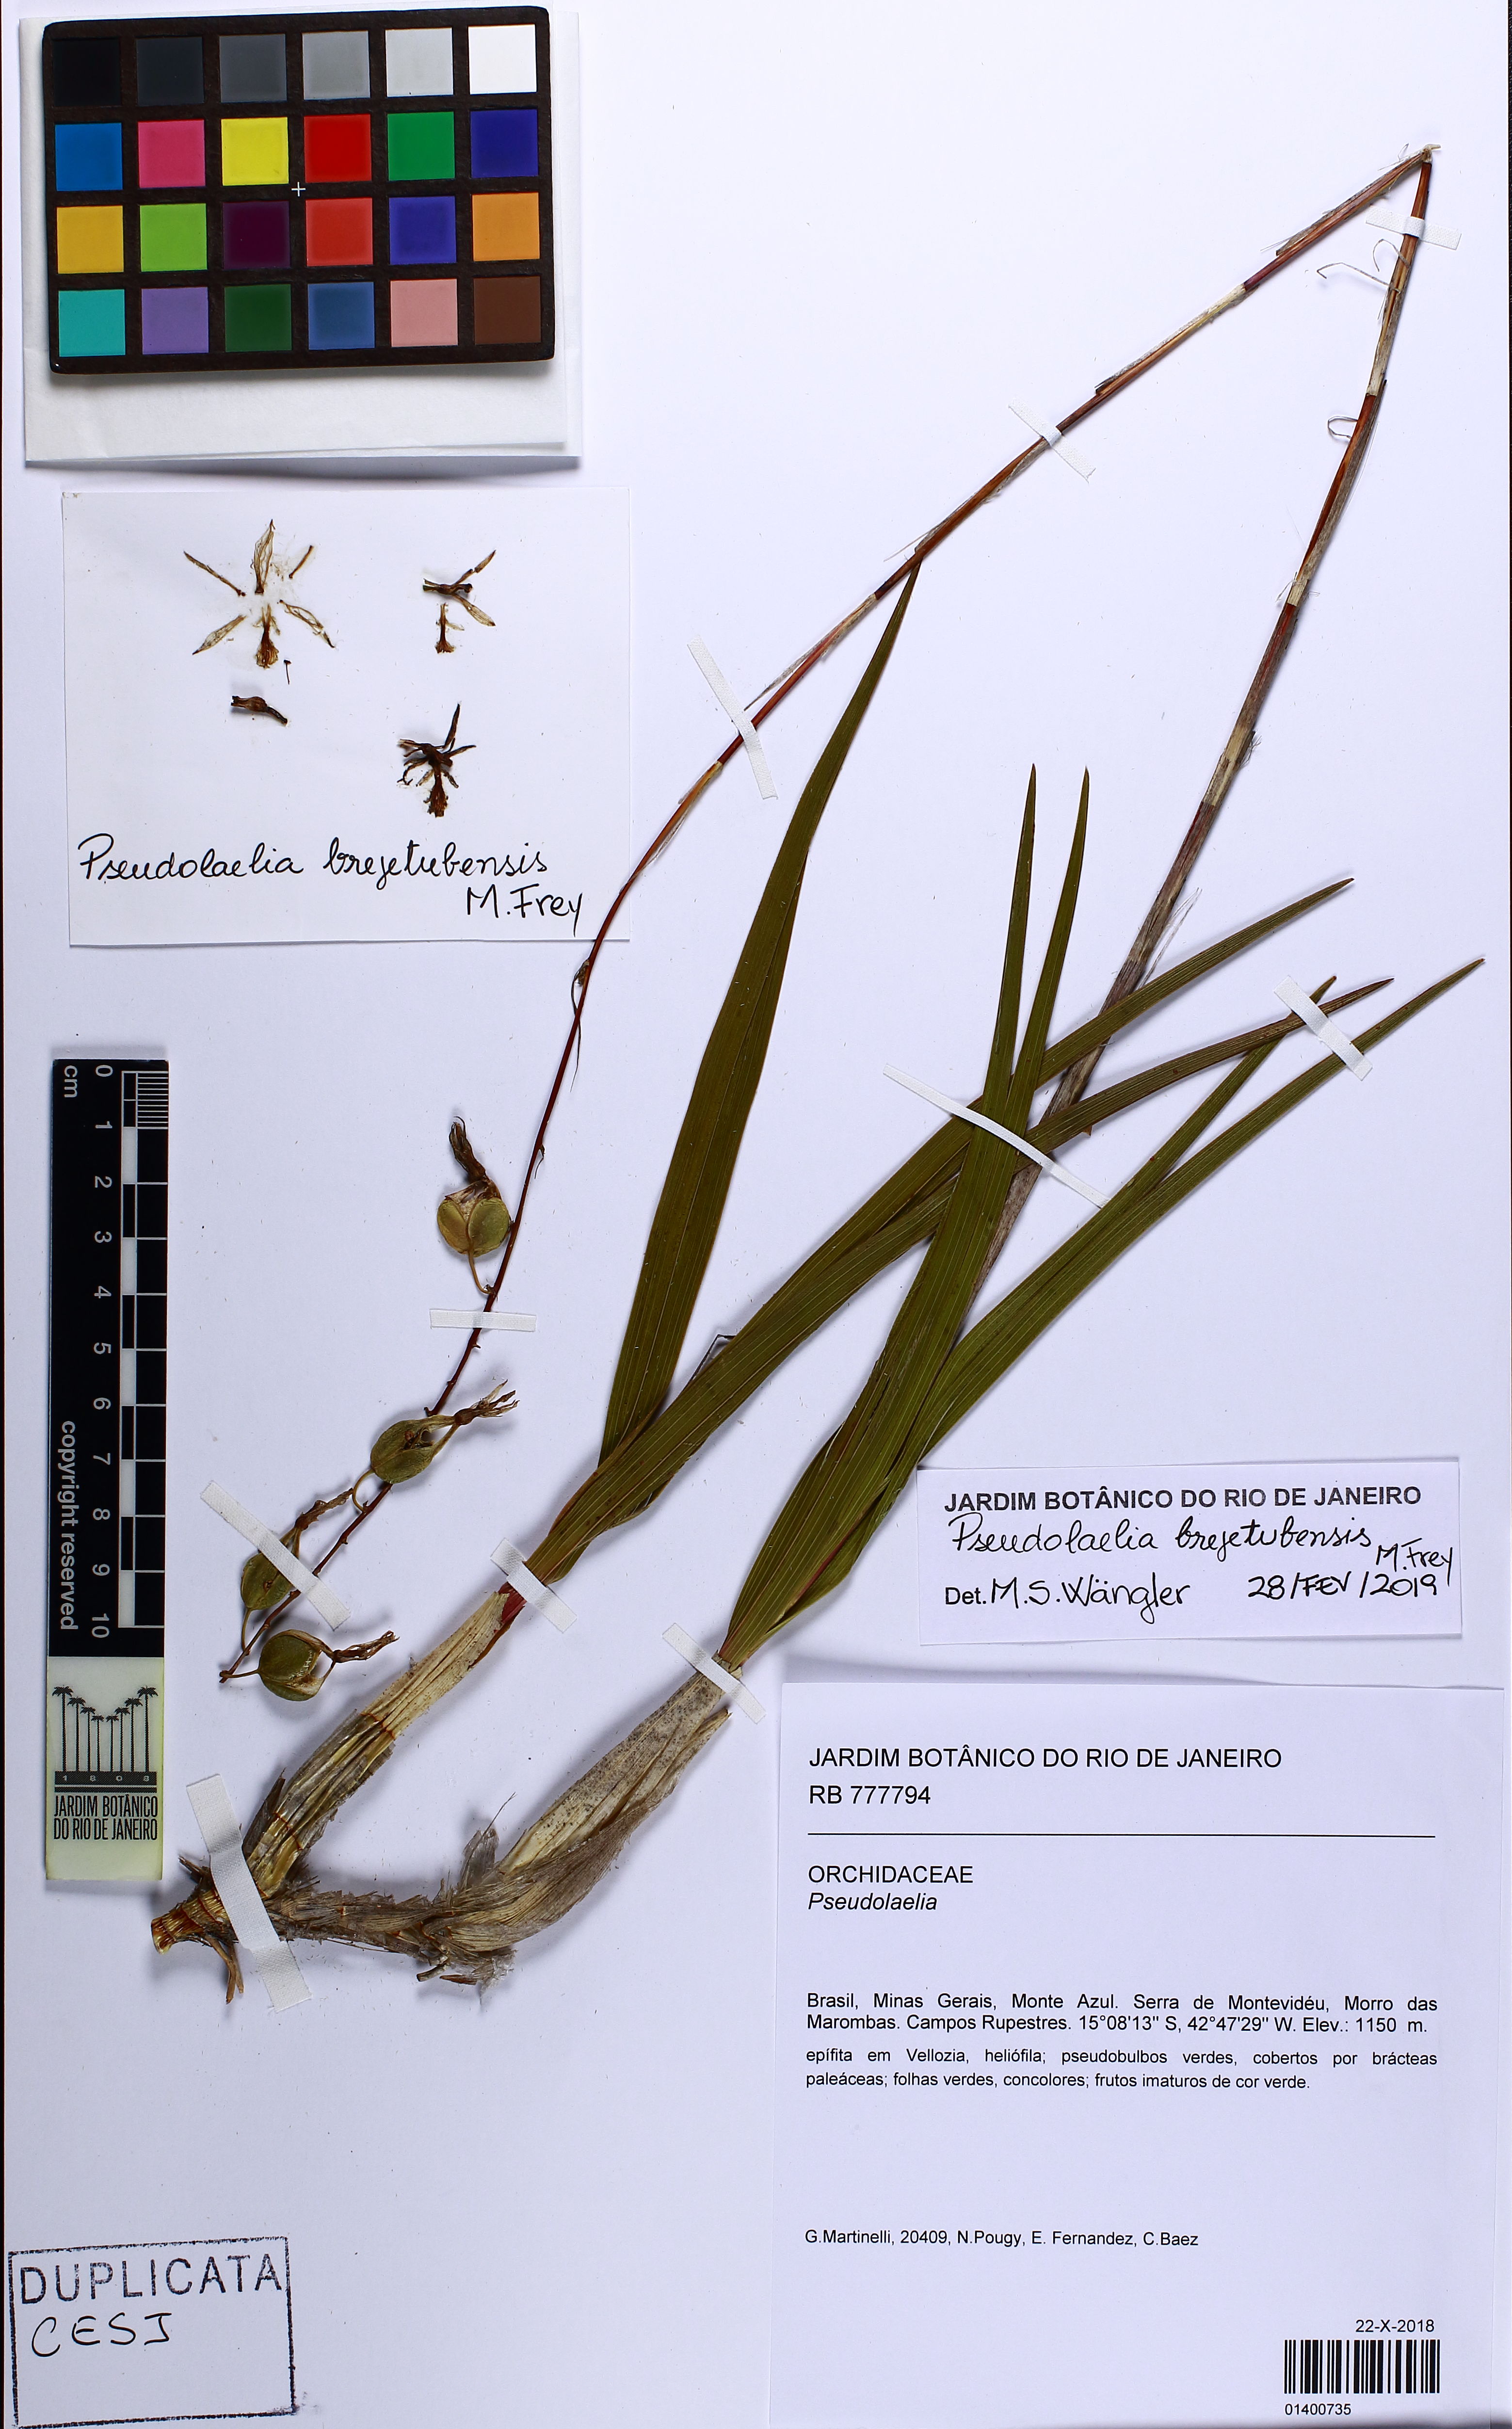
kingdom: Plantae
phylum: Tracheophyta
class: Liliopsida
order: Asparagales
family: Orchidaceae
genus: Pseudolaelia
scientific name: Pseudolaelia dutrae
